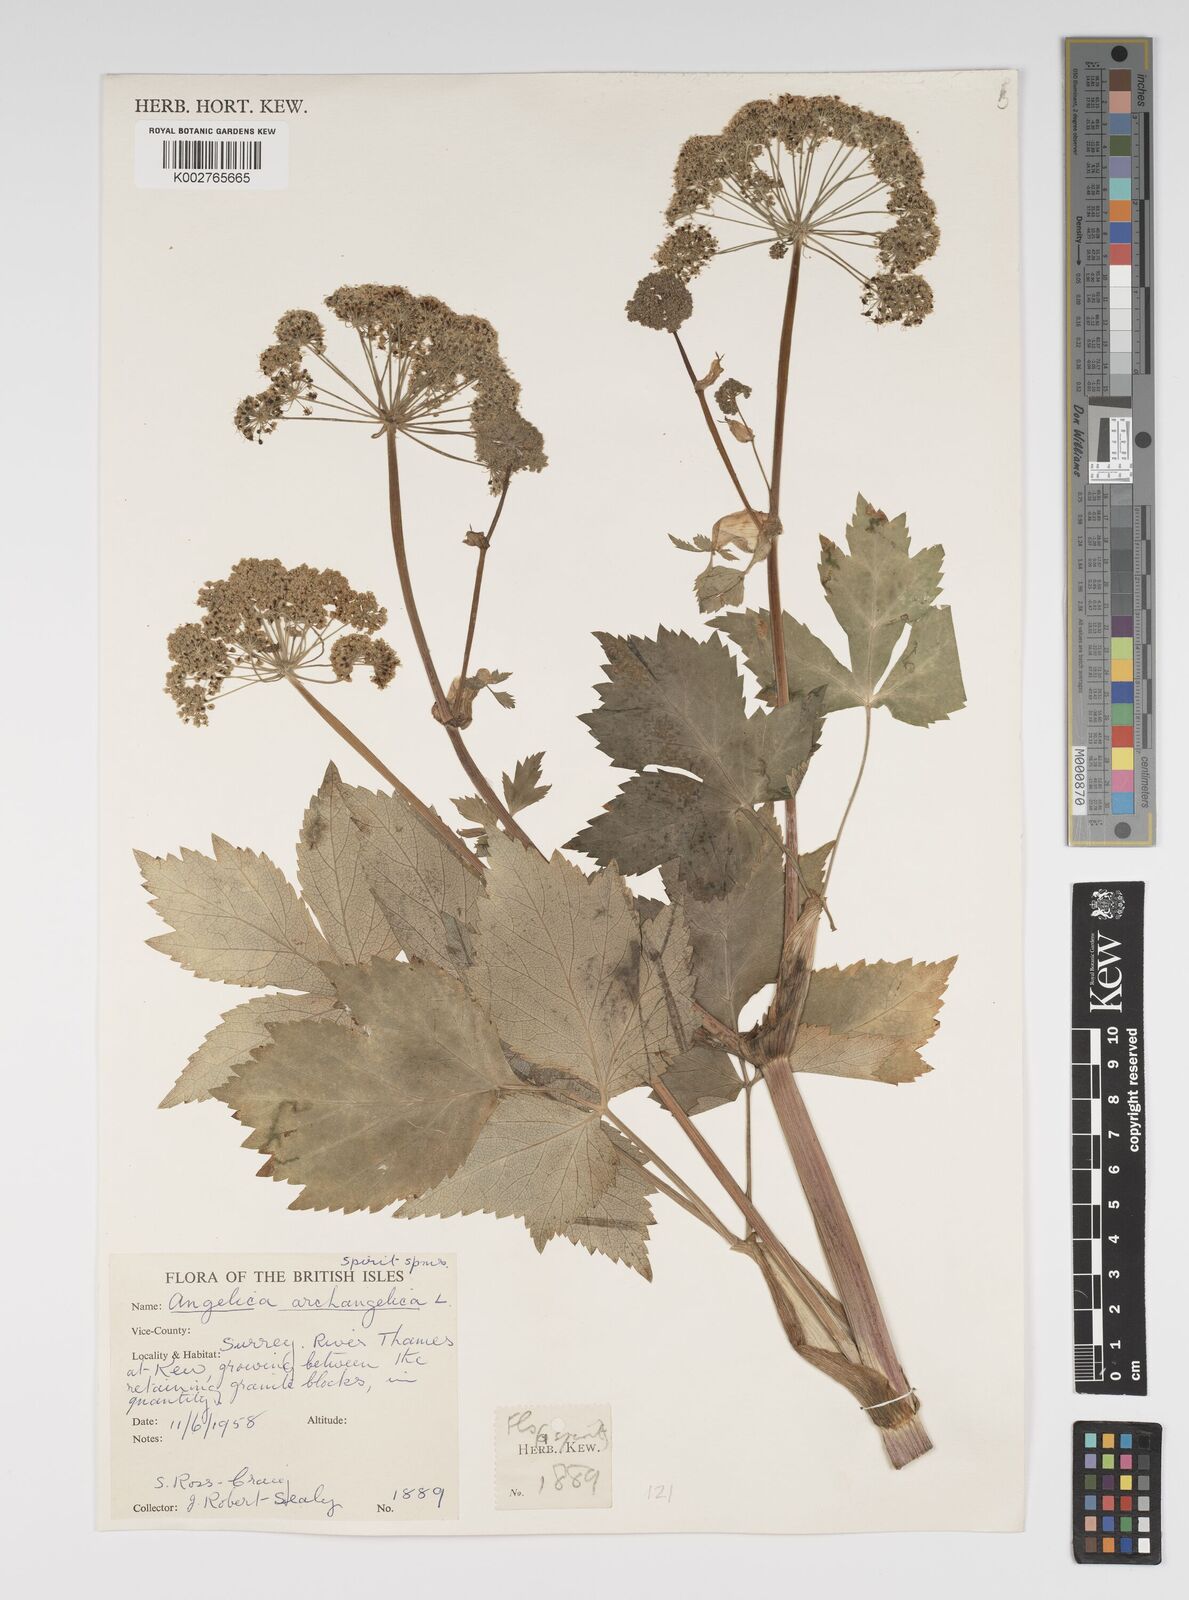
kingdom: Plantae
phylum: Tracheophyta
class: Magnoliopsida
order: Apiales
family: Apiaceae
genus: Angelica
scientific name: Angelica archangelica
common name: Garden angelica
